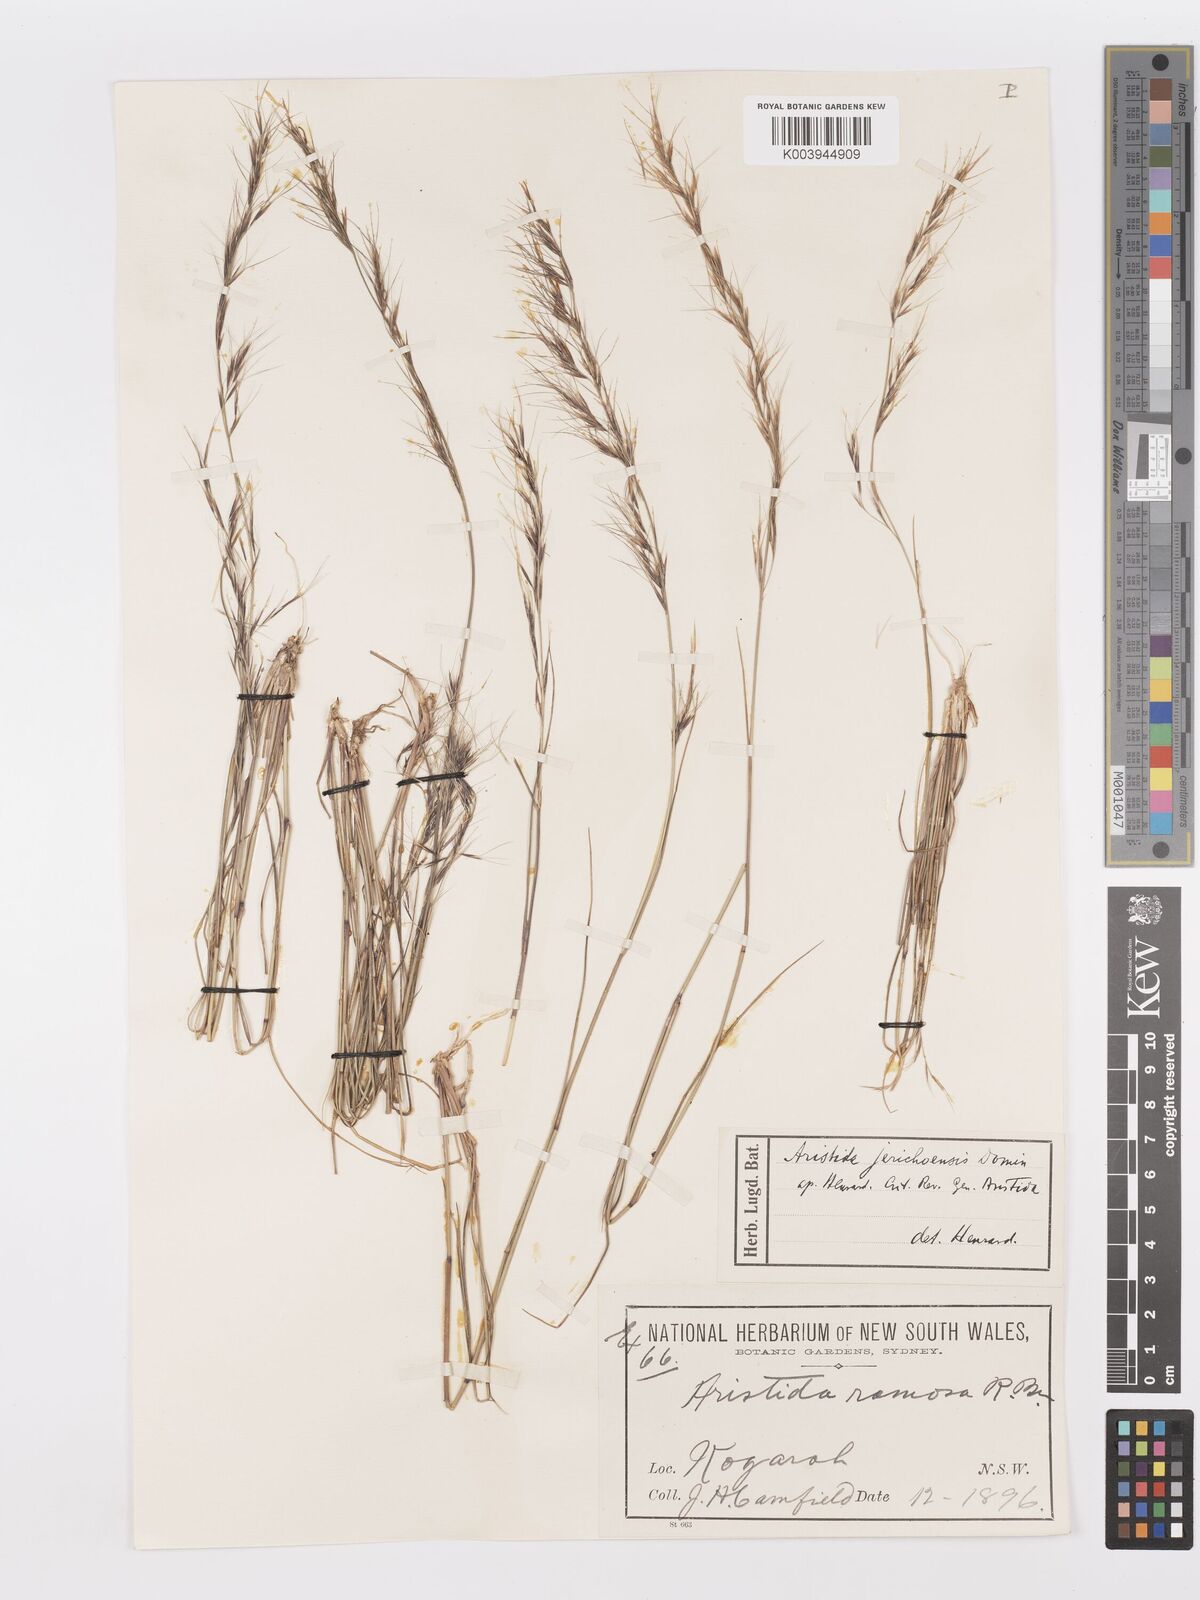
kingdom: Plantae
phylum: Tracheophyta
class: Liliopsida
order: Poales
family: Poaceae
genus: Aristida
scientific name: Aristida jerichoensis
